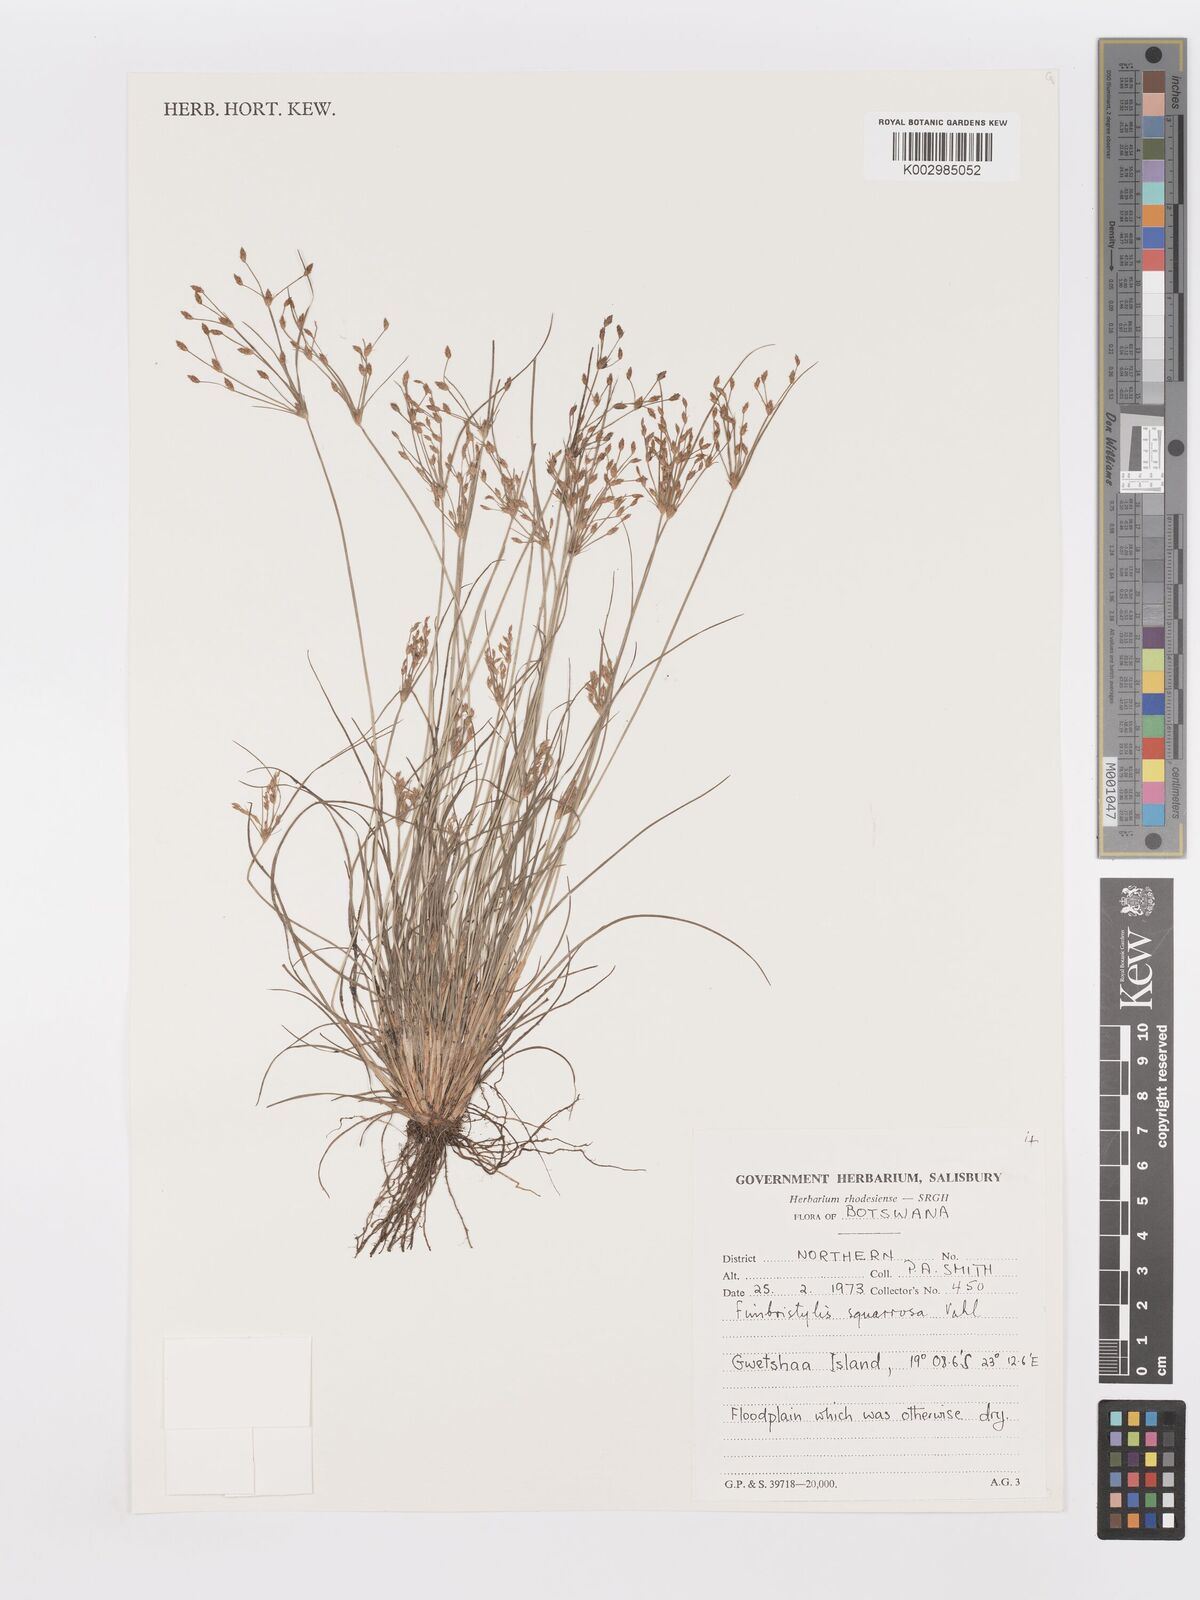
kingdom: Plantae
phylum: Tracheophyta
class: Liliopsida
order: Poales
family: Cyperaceae
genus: Fimbristylis
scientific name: Fimbristylis squarrosa
